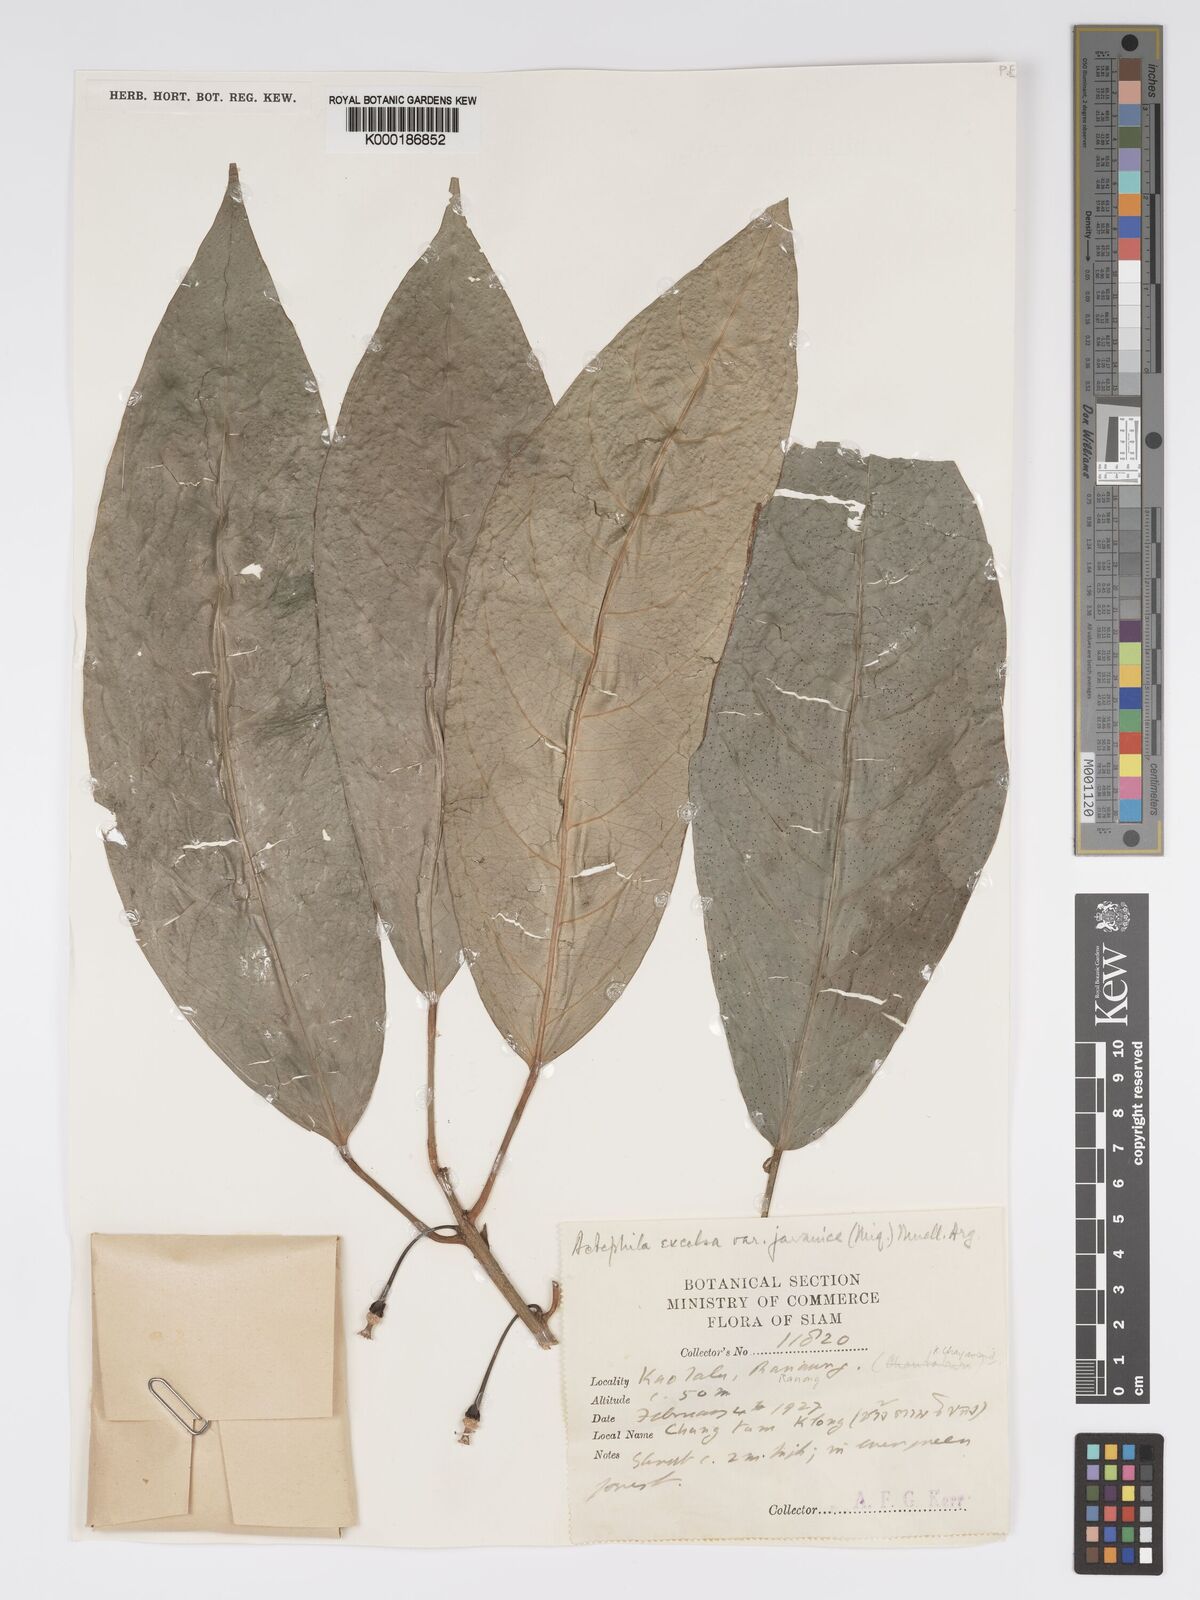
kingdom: Plantae
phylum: Tracheophyta
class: Magnoliopsida
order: Malpighiales
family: Phyllanthaceae
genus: Actephila
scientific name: Actephila
